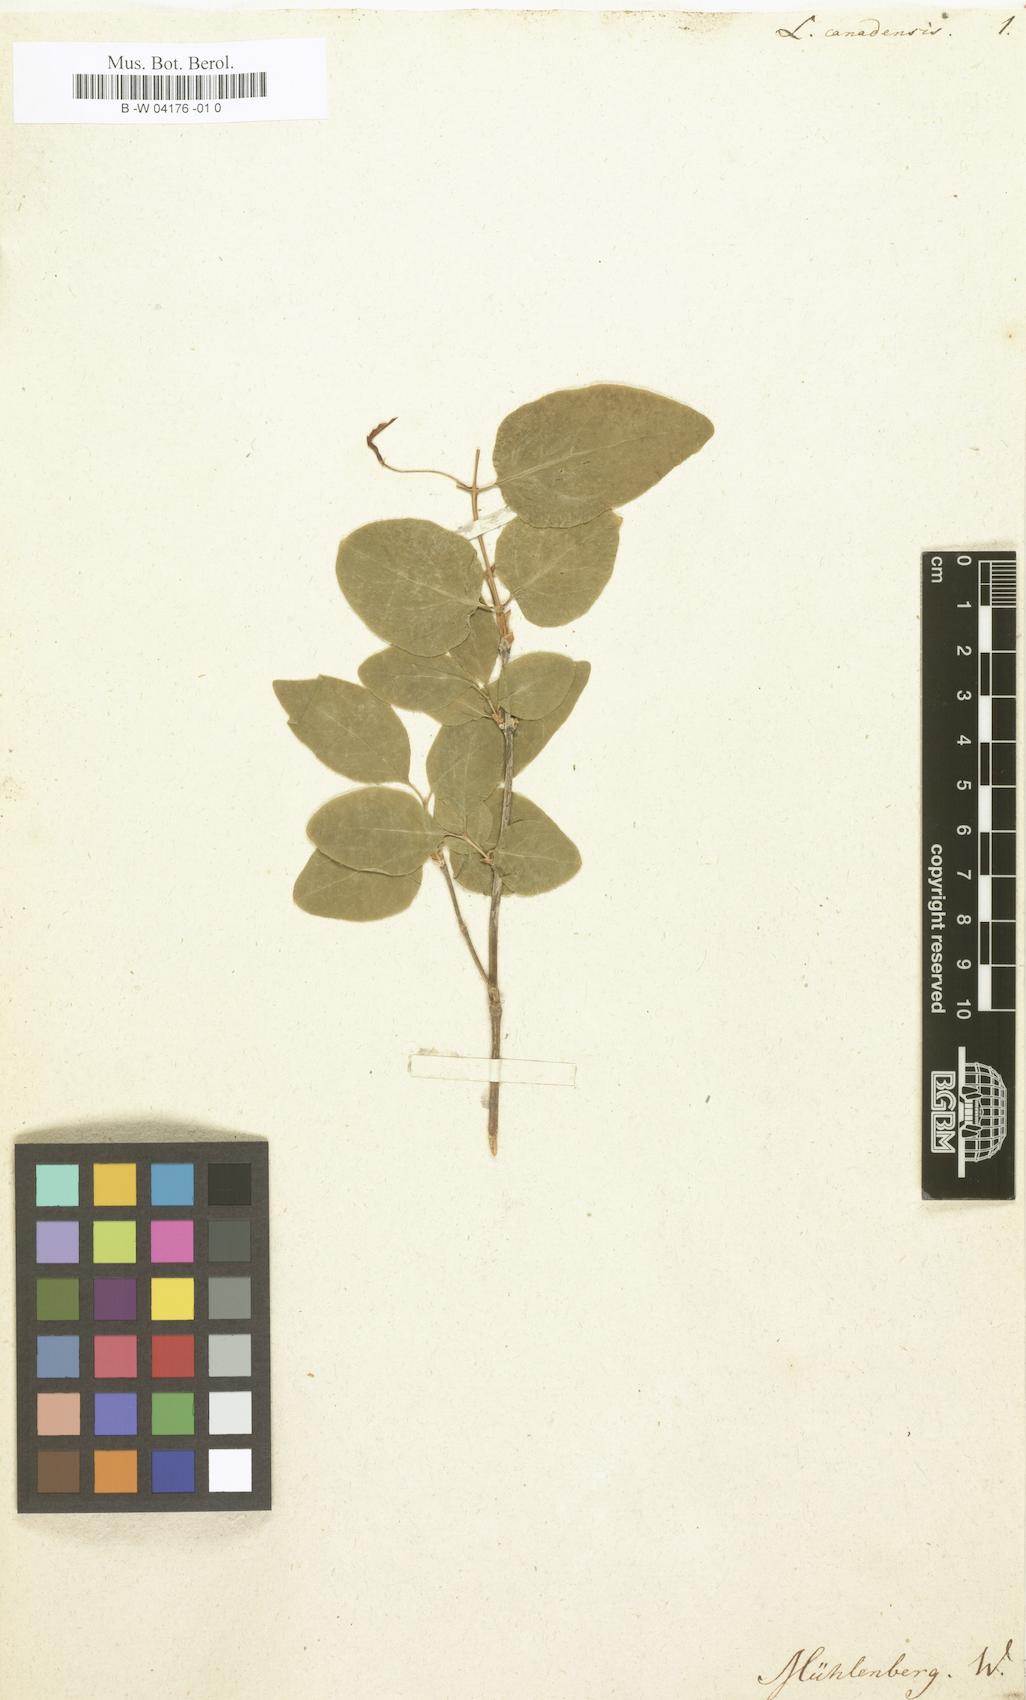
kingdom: Plantae
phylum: Tracheophyta
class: Magnoliopsida
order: Dipsacales
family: Caprifoliaceae
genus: Lonicera
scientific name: Lonicera canadensis
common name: American fly-honeysuckle
